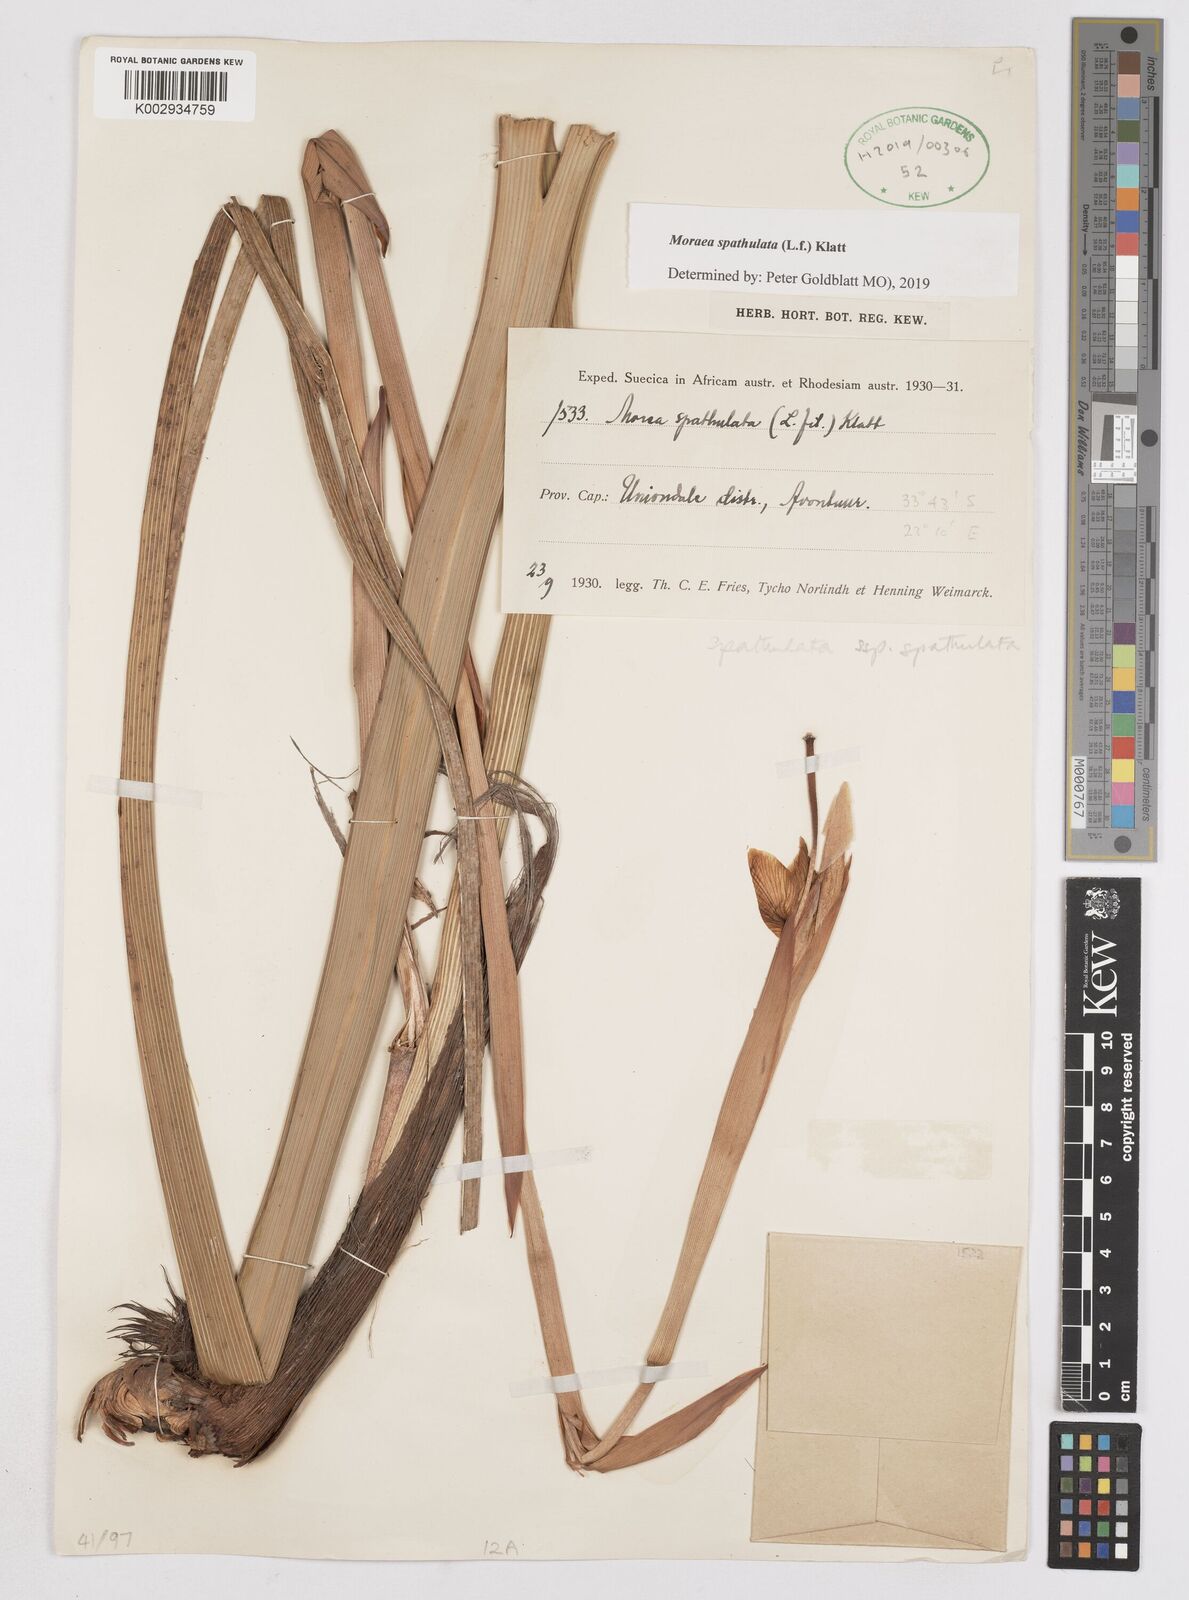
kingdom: Plantae
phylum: Tracheophyta
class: Liliopsida
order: Asparagales
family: Iridaceae
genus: Moraea
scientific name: Moraea spathulata
